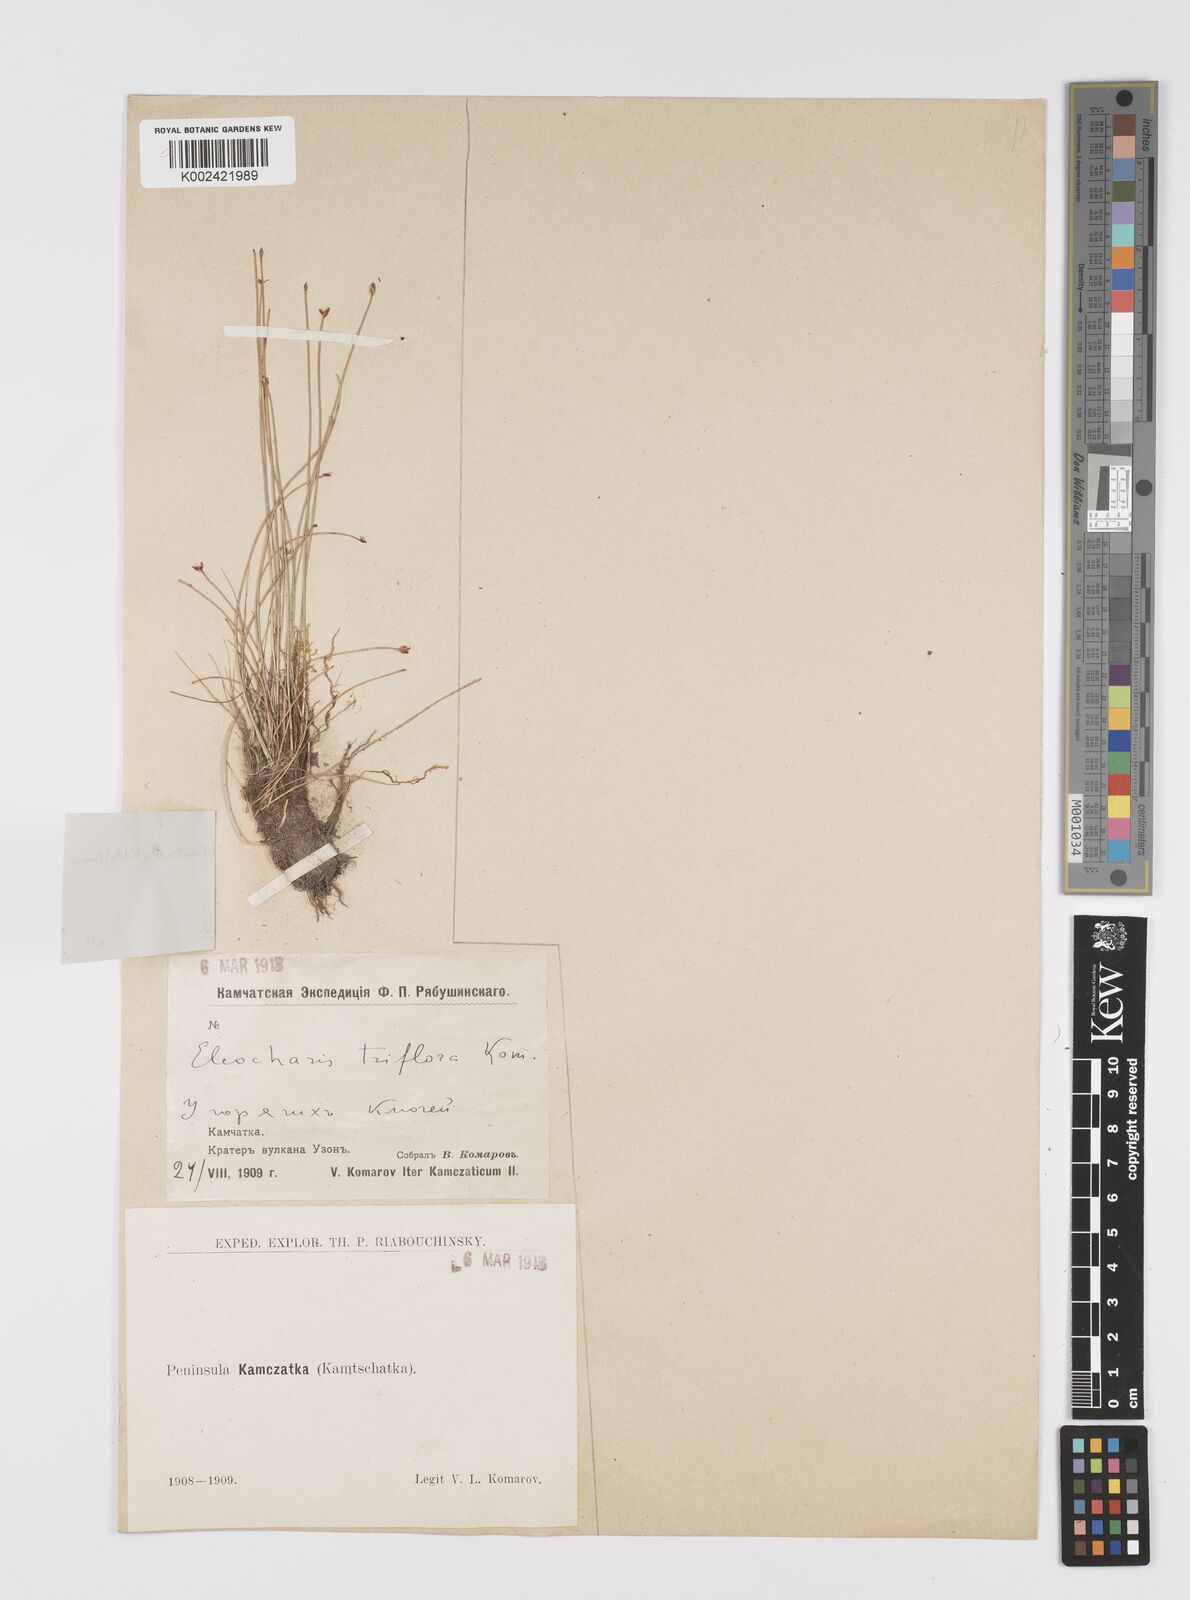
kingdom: Plantae
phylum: Tracheophyta
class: Liliopsida
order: Poales
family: Cyperaceae
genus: Eleocharis
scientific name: Eleocharis kamtschatica
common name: Kamchatka spikerush
